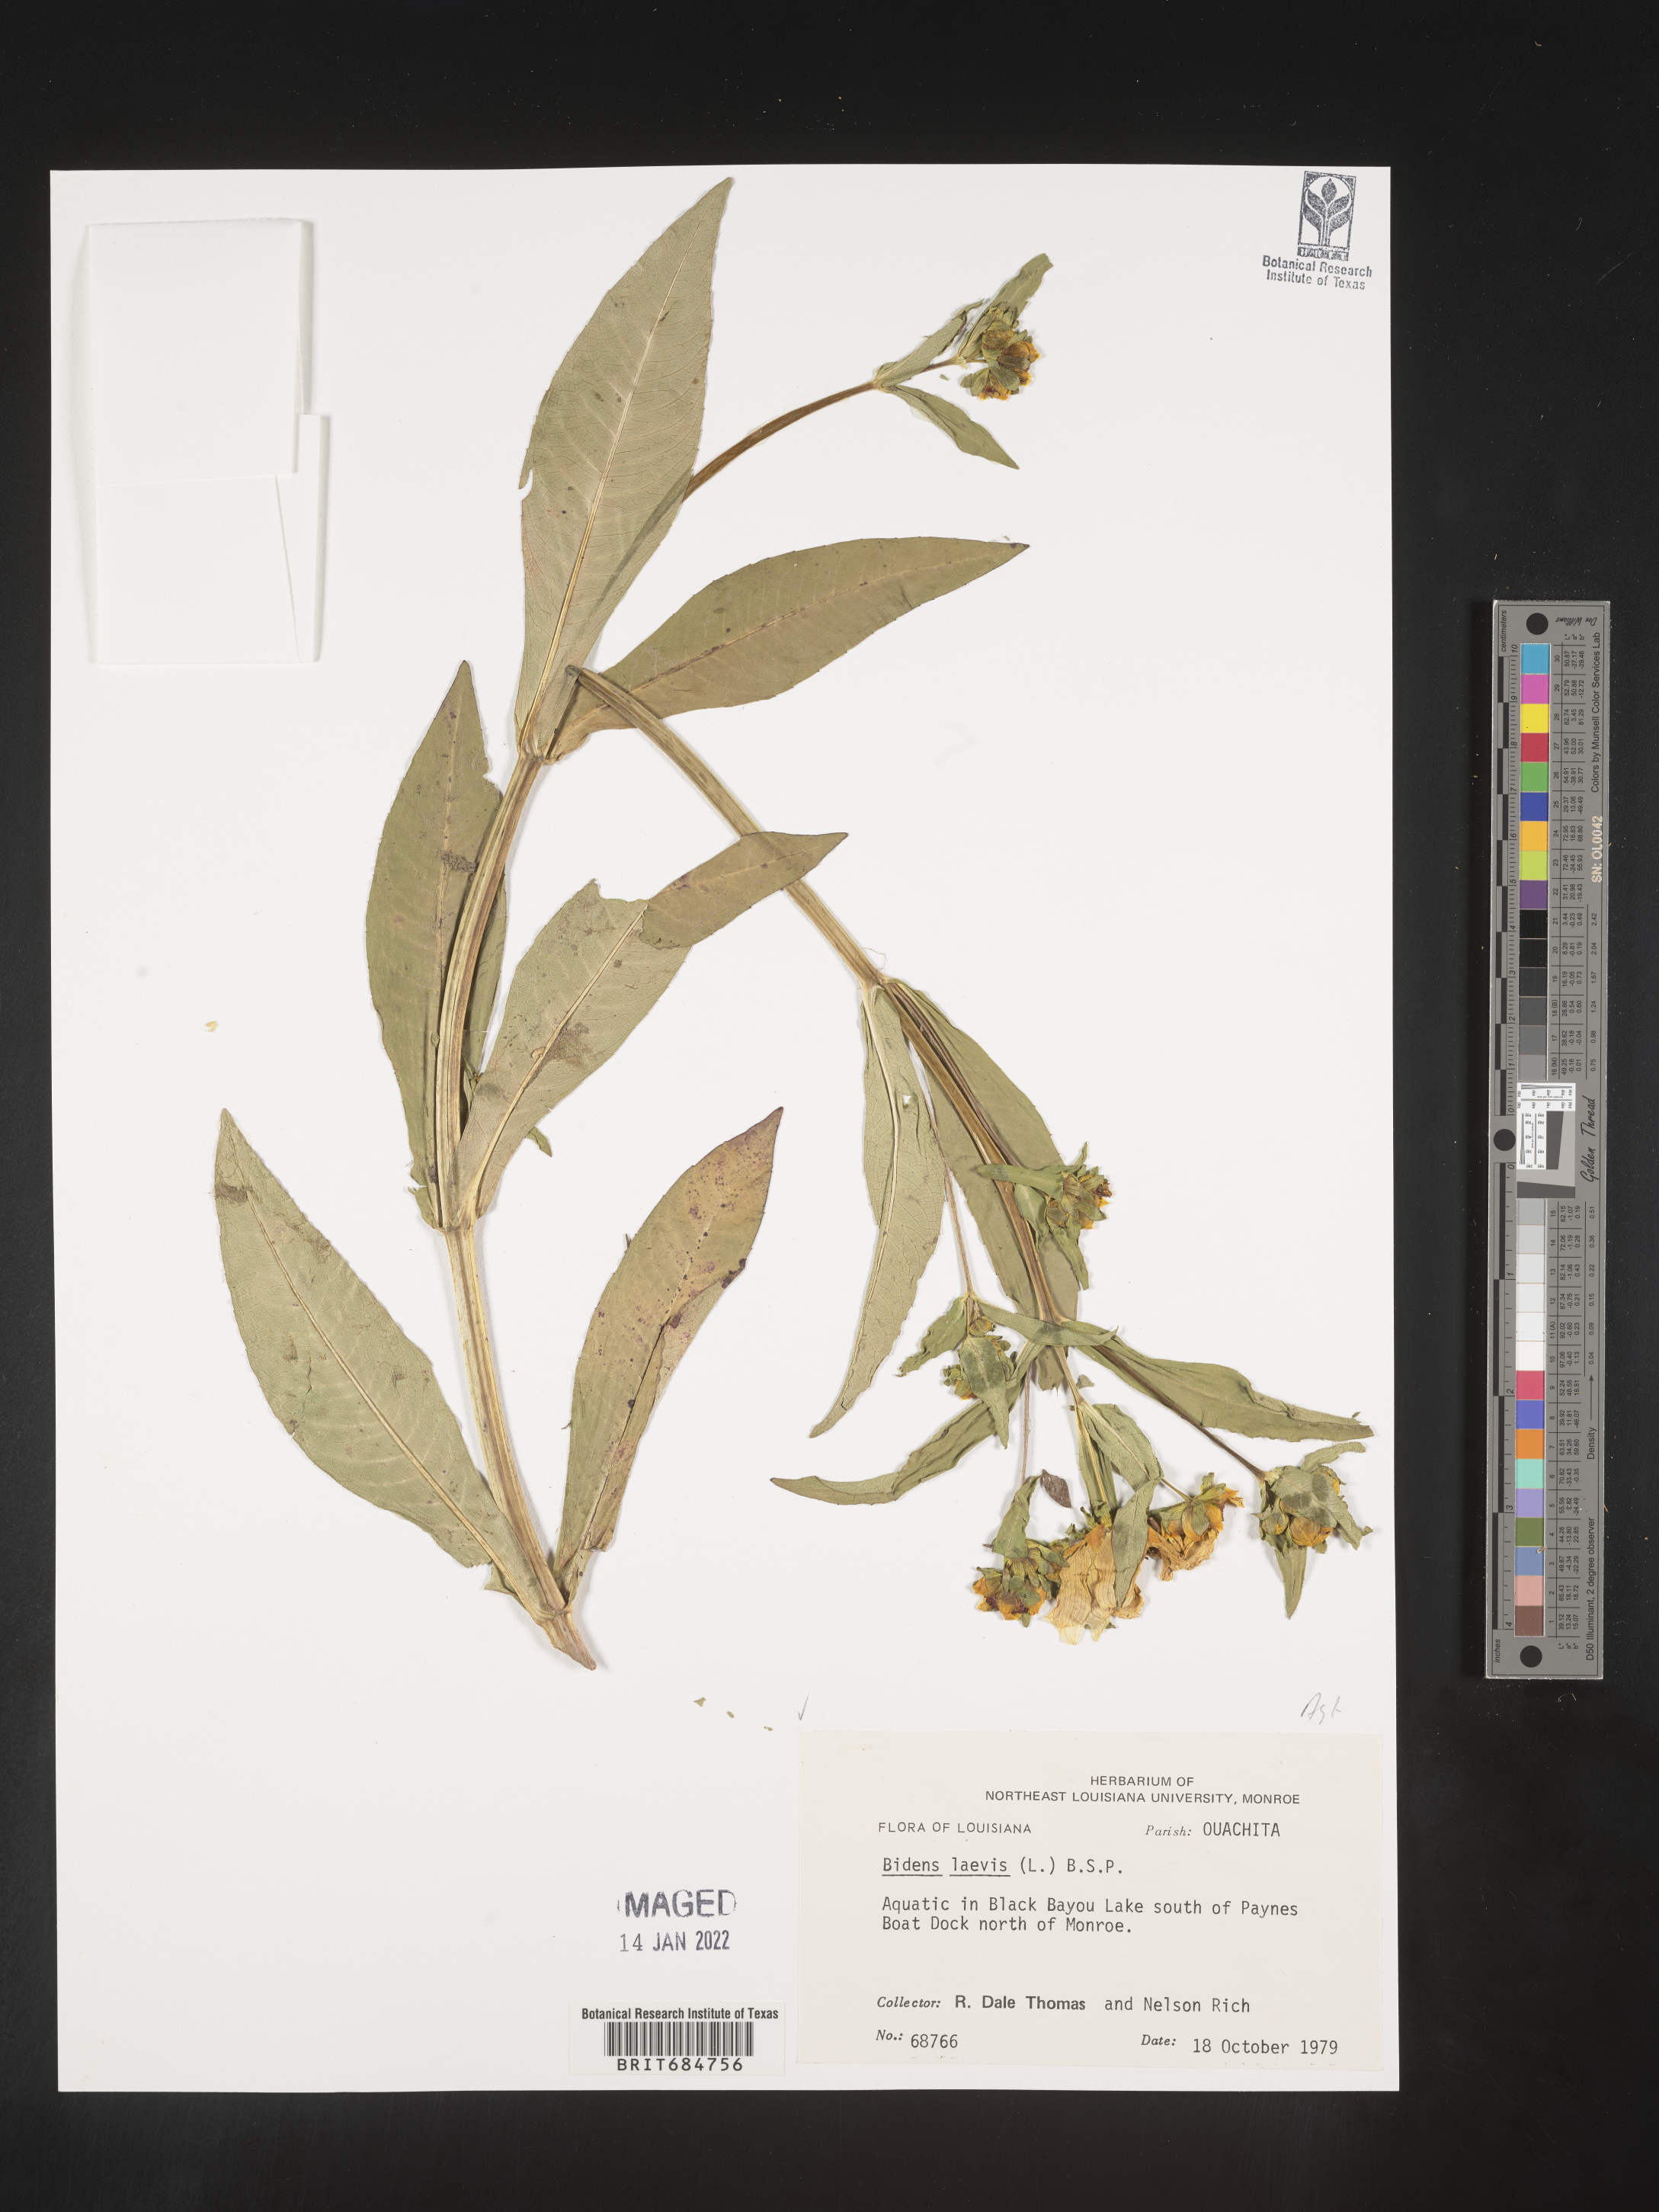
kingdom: Plantae
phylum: Tracheophyta
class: Magnoliopsida
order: Asterales
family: Asteraceae
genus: Bidens
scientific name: Bidens laevis
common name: Larger bur-marigold
